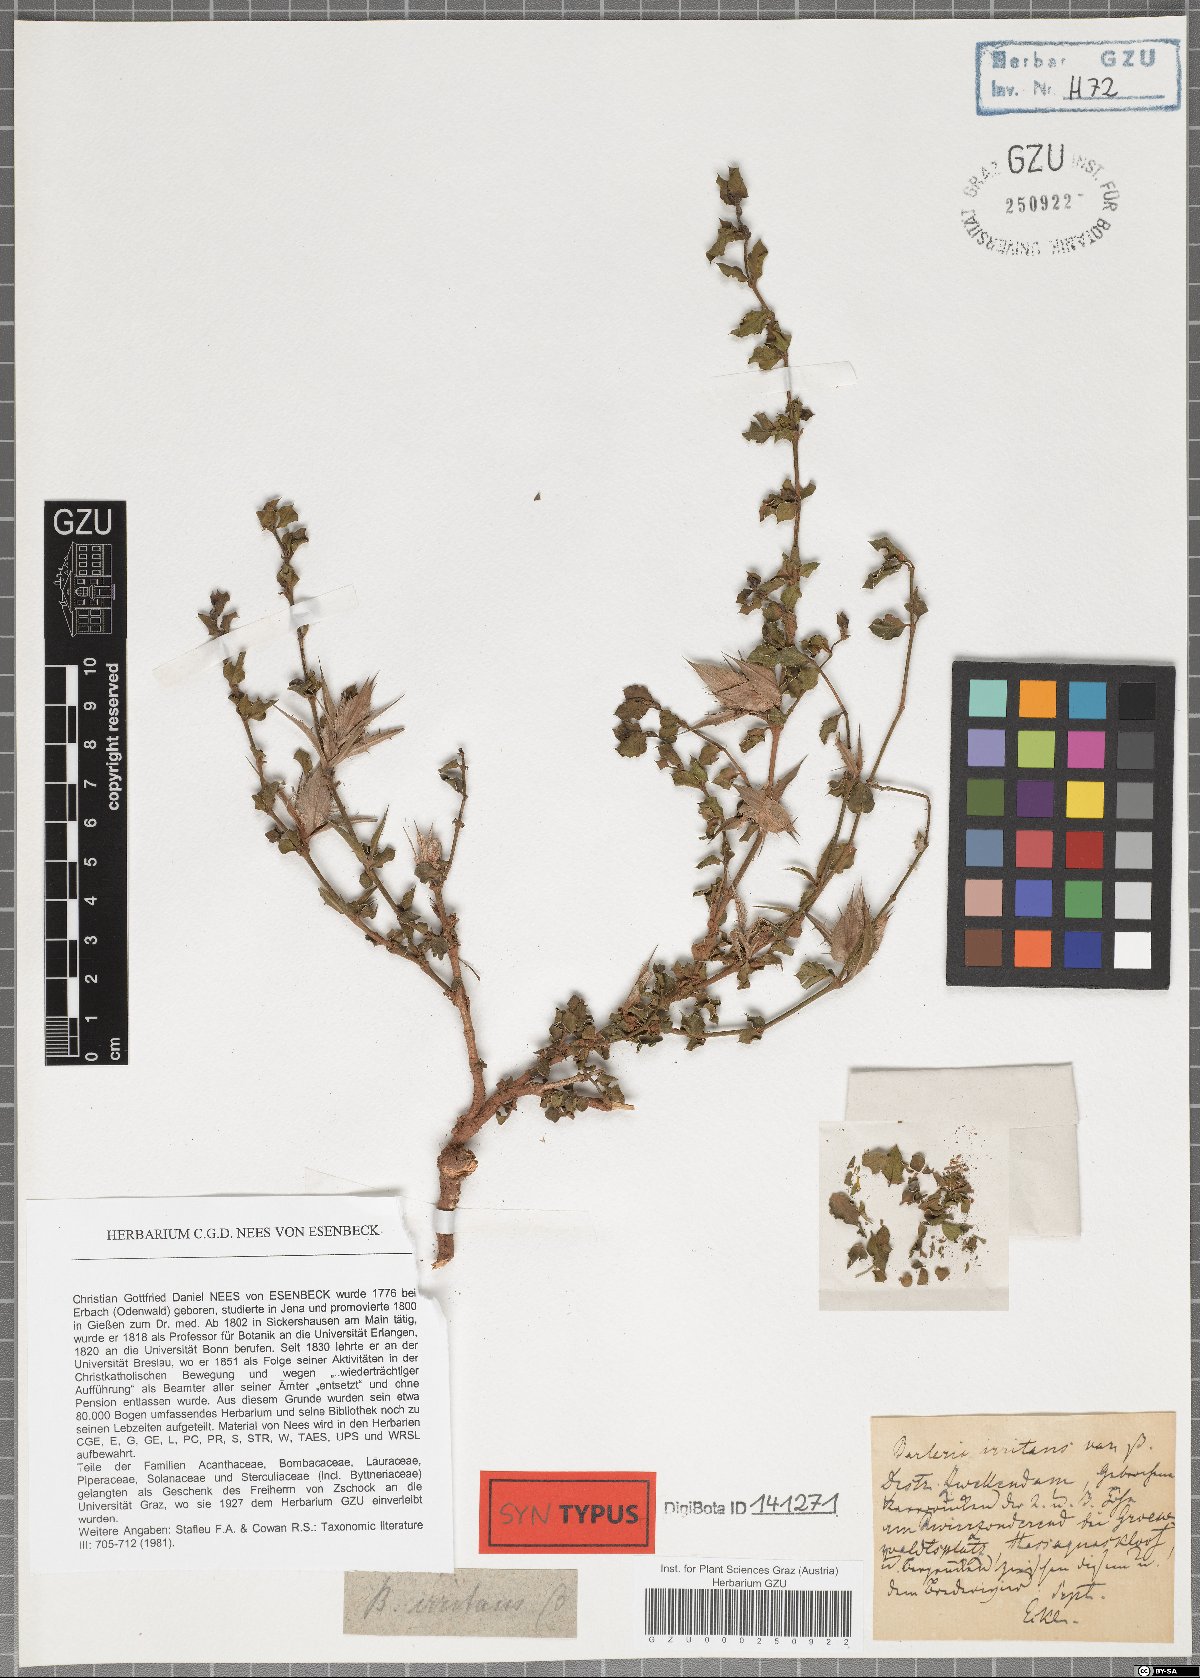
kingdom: Plantae
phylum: Tracheophyta
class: Magnoliopsida
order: Lamiales
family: Acanthaceae
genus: Barleria
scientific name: Barleria irritans
